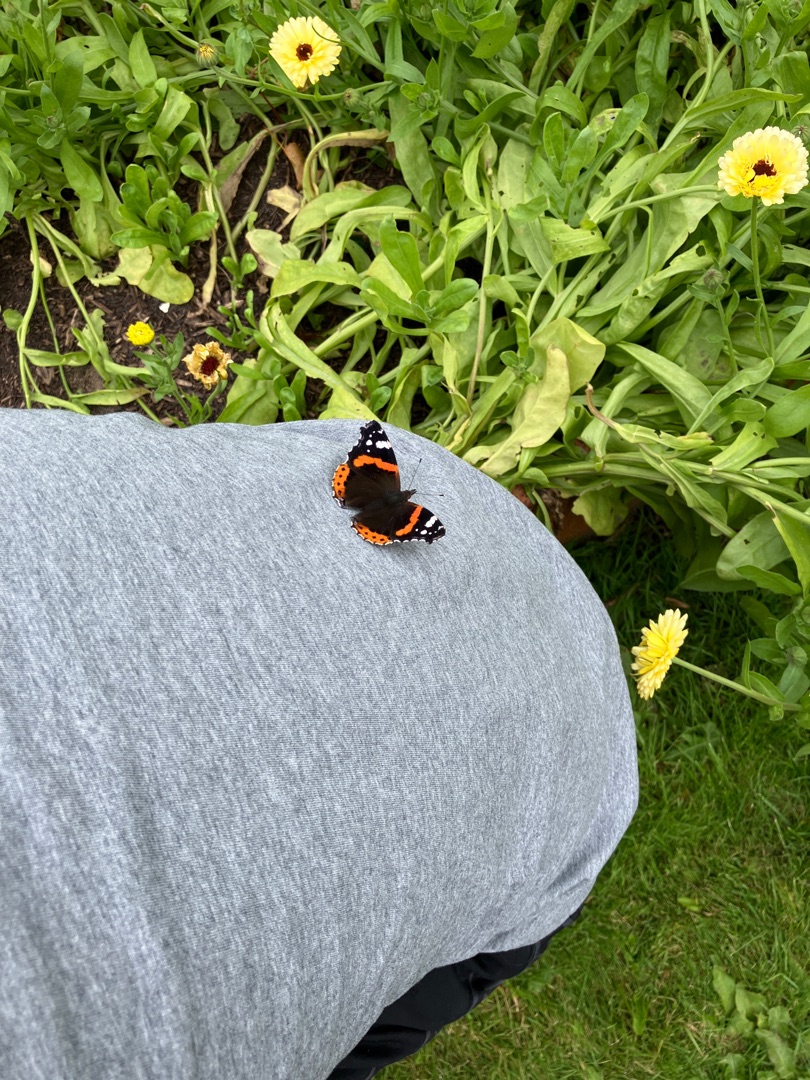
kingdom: Animalia
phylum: Arthropoda
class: Insecta
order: Lepidoptera
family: Nymphalidae
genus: Vanessa
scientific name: Vanessa atalanta
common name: Admiral
